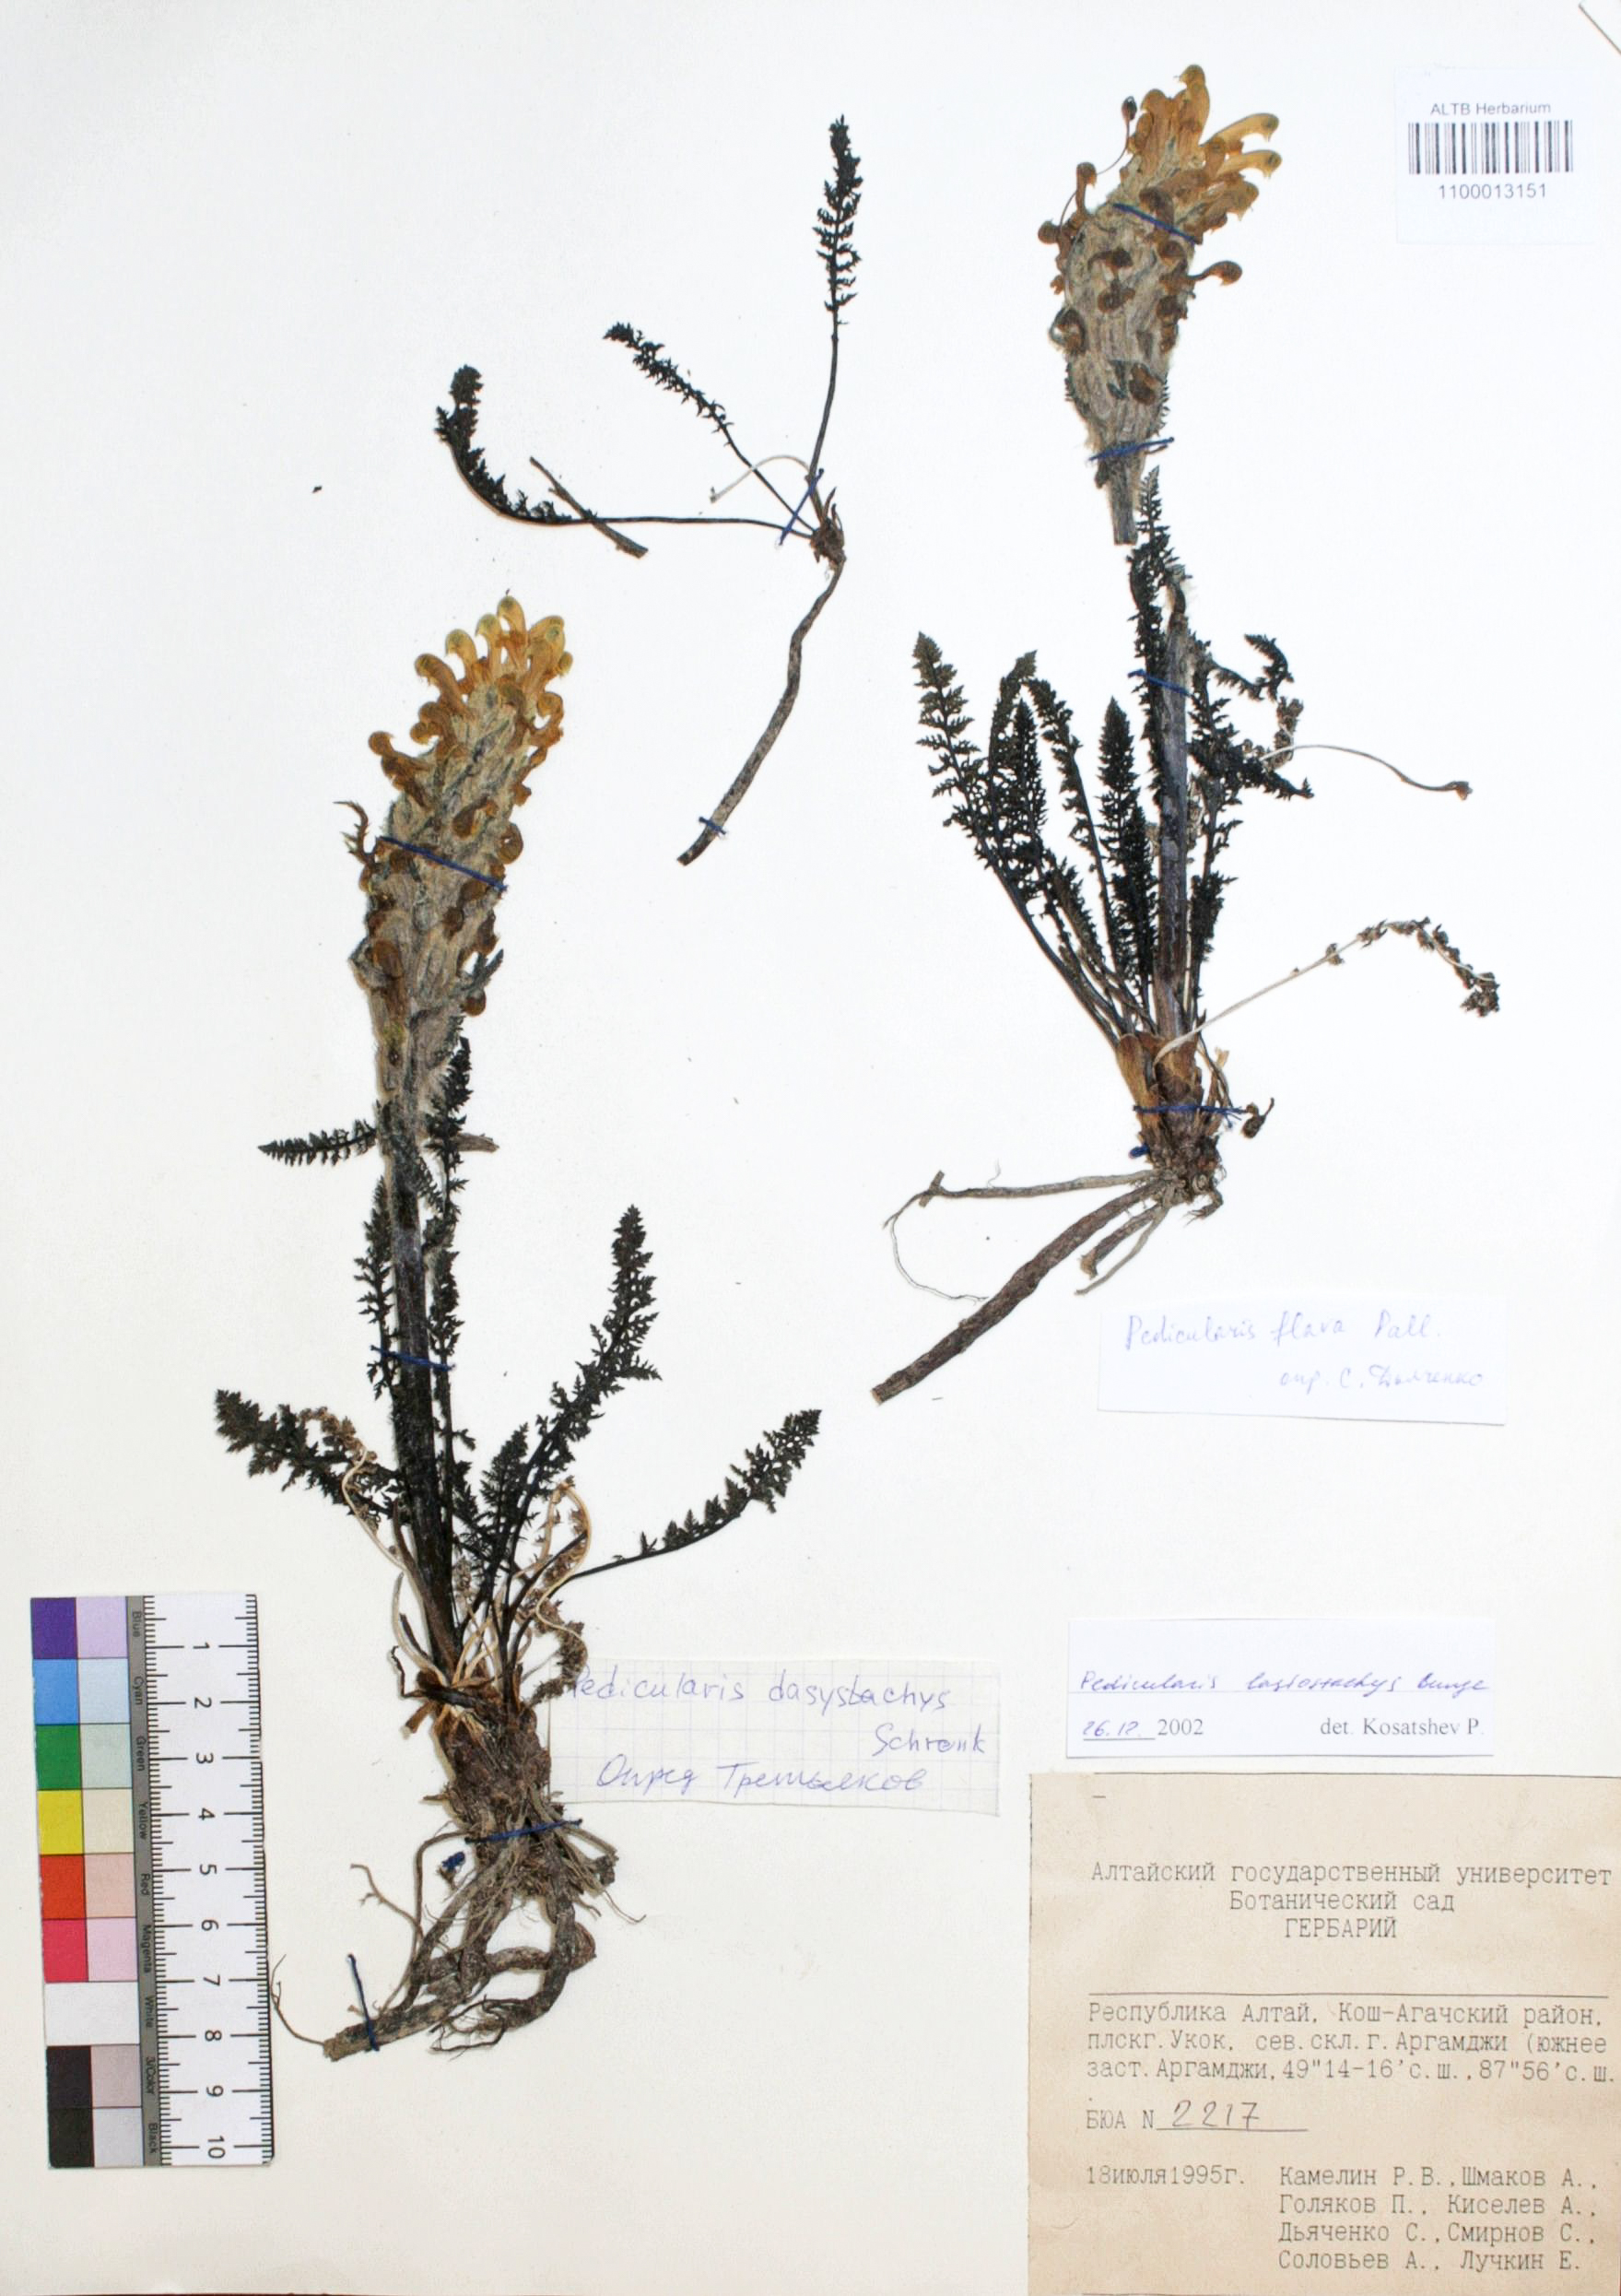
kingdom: Plantae
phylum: Tracheophyta
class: Magnoliopsida
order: Lamiales
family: Orobanchaceae
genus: Pedicularis
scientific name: Pedicularis lasiostachys
